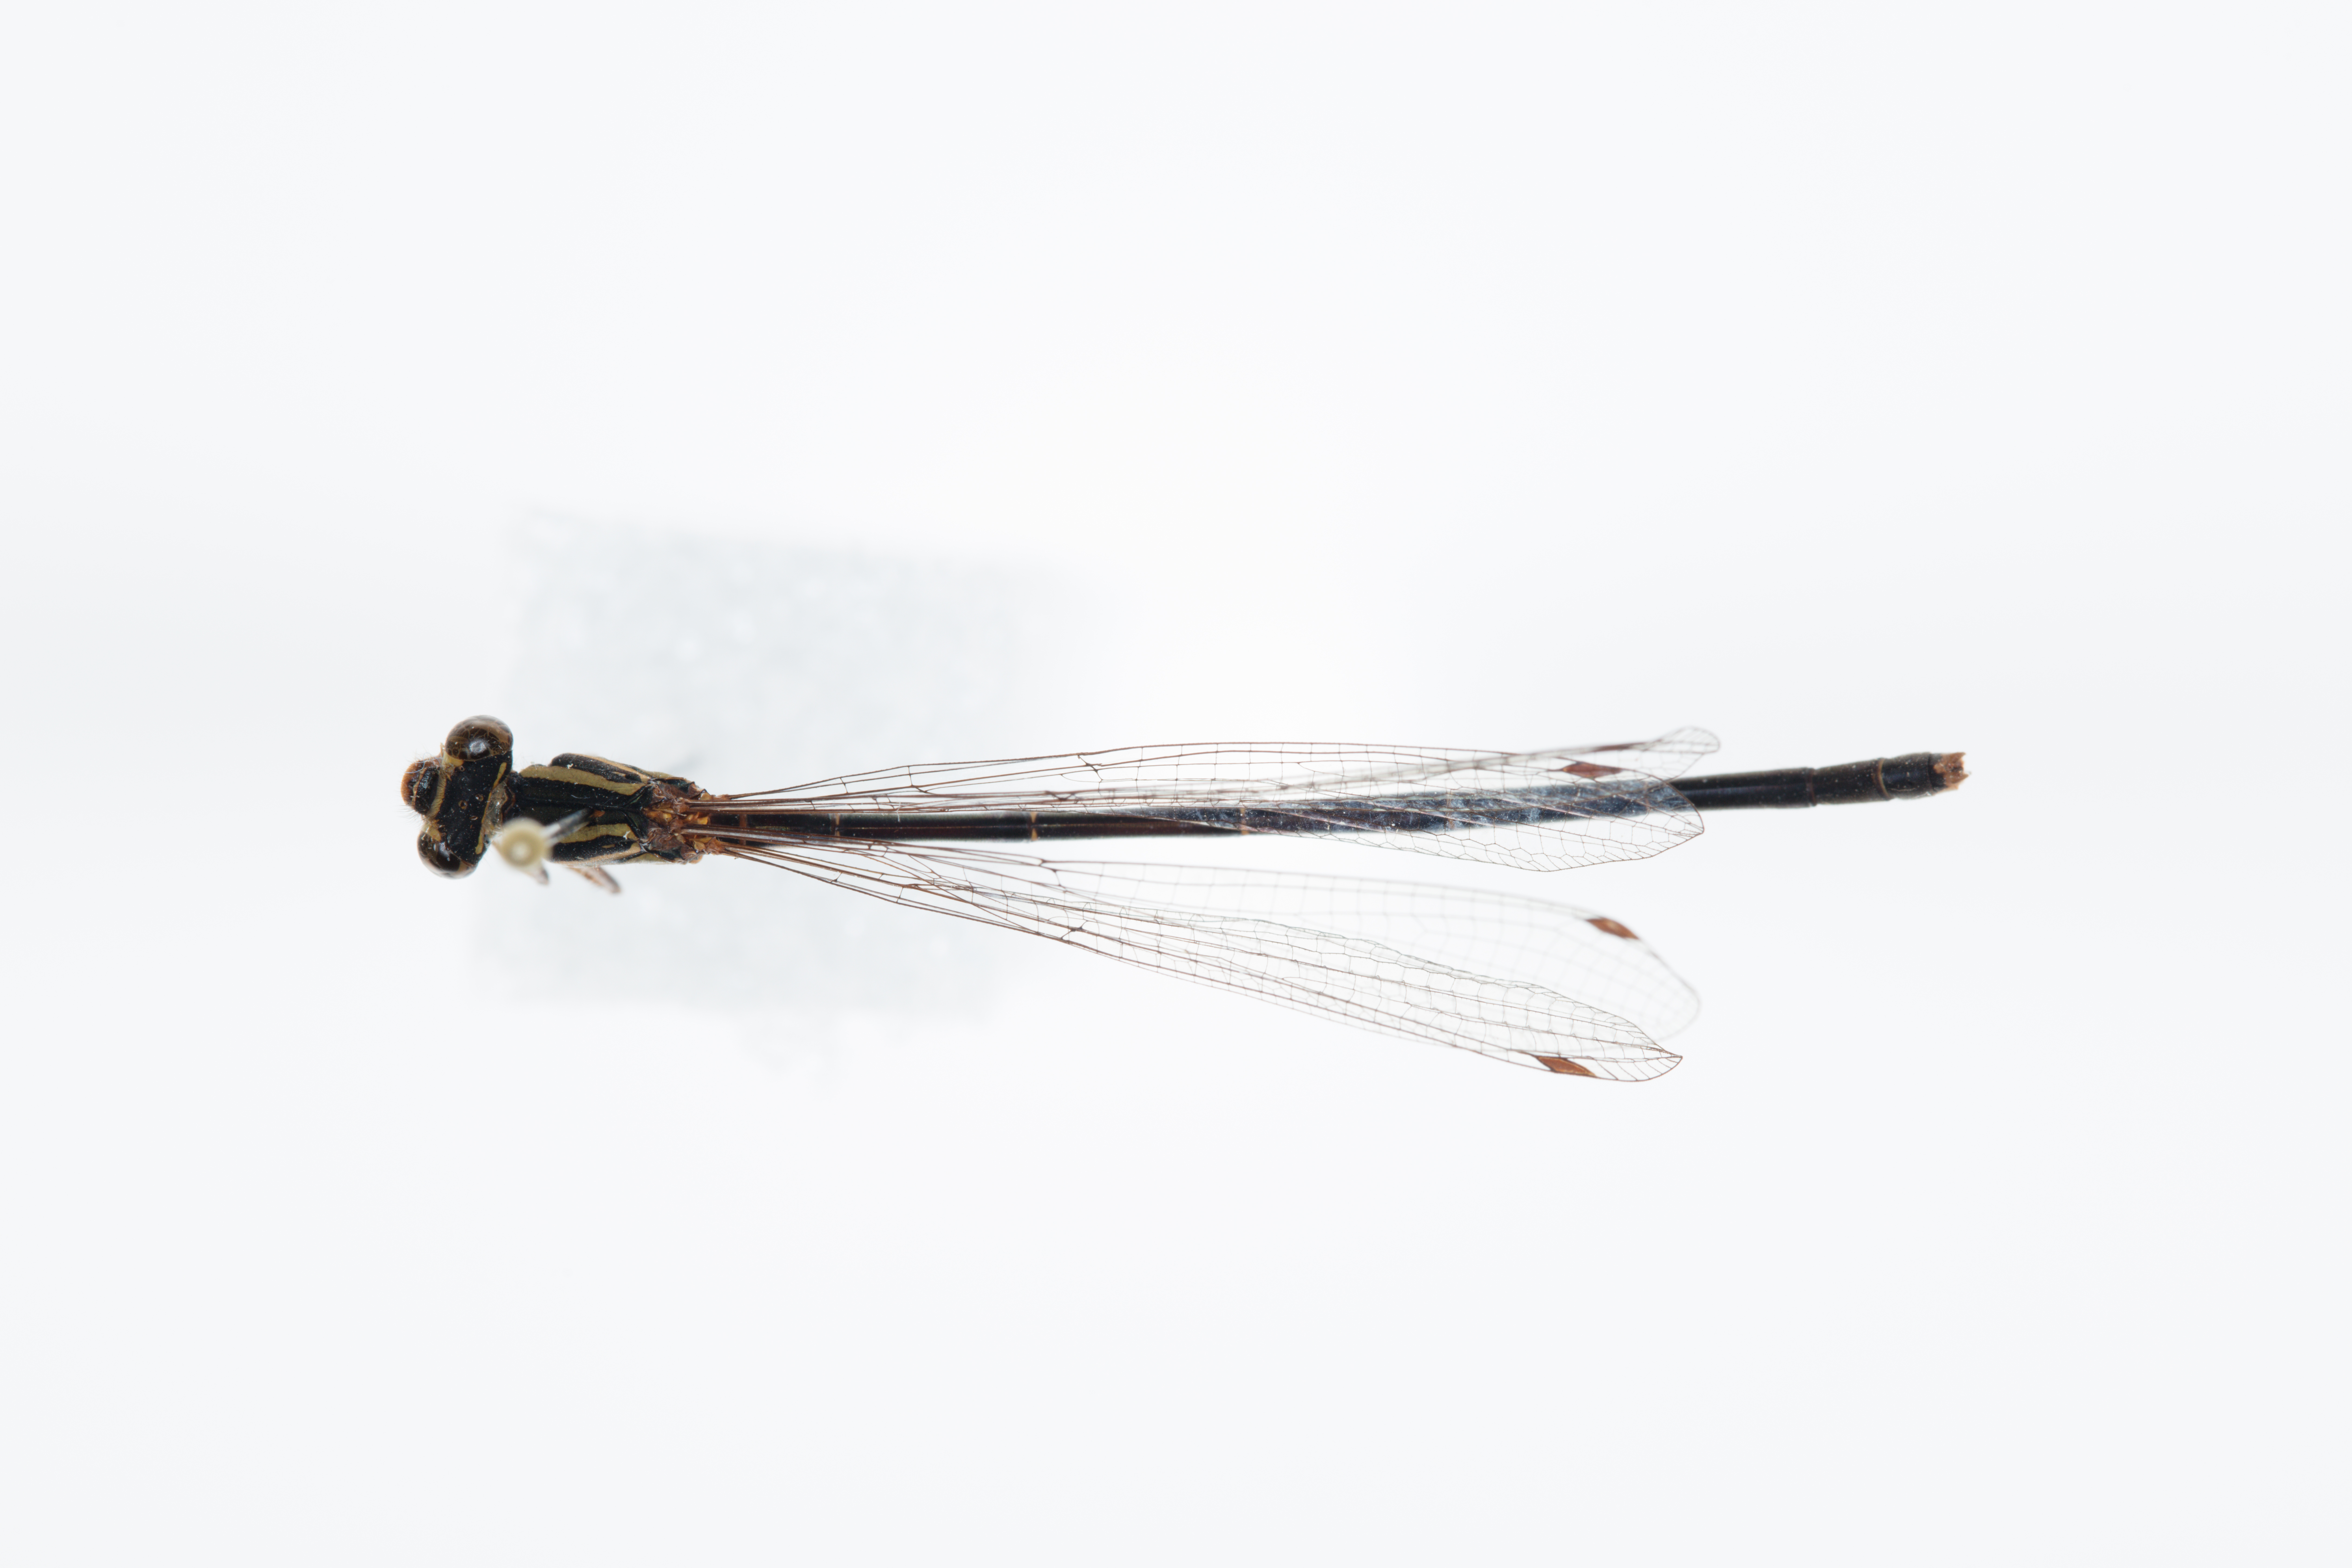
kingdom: Animalia
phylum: Arthropoda
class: Insecta
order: Odonata
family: Coenagrionidae
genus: Xanthocnemis
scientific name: Xanthocnemis zealandica
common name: Common redcoat damselfly
